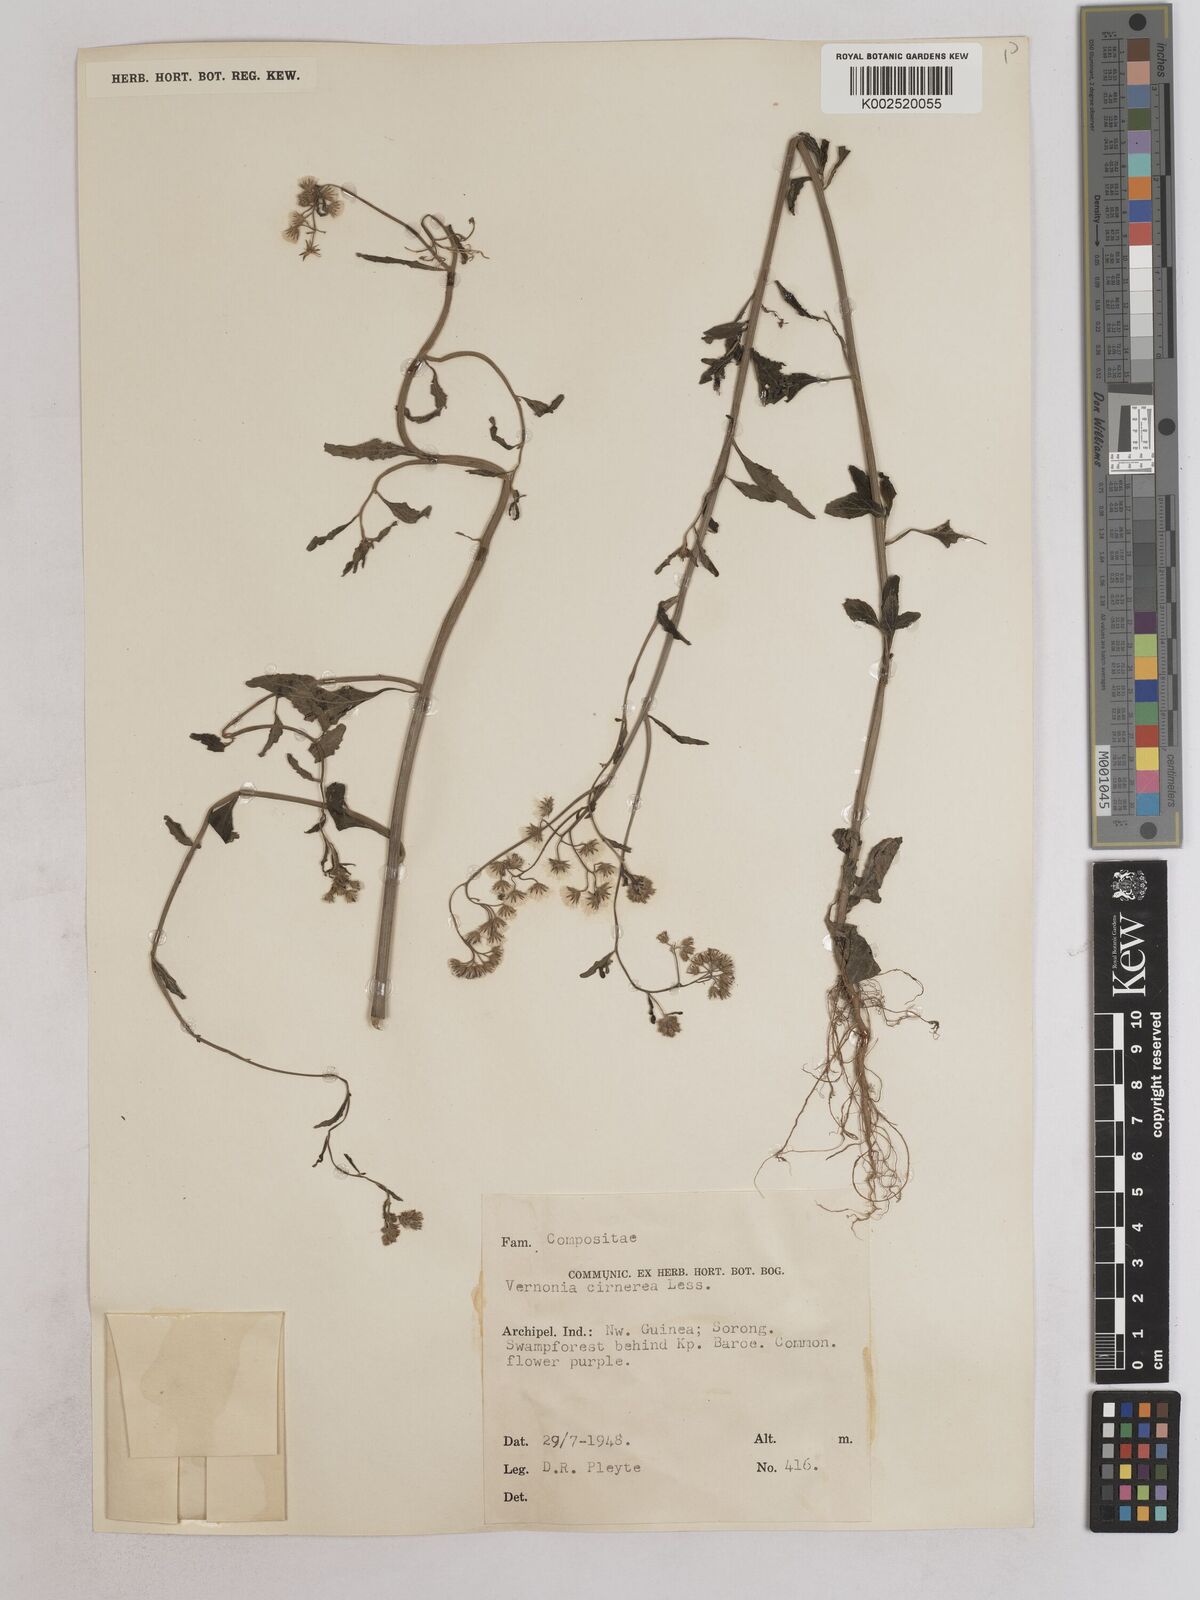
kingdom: Plantae
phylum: Tracheophyta
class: Magnoliopsida
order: Asterales
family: Asteraceae
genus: Cyanthillium
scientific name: Cyanthillium cinereum
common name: Little ironweed
